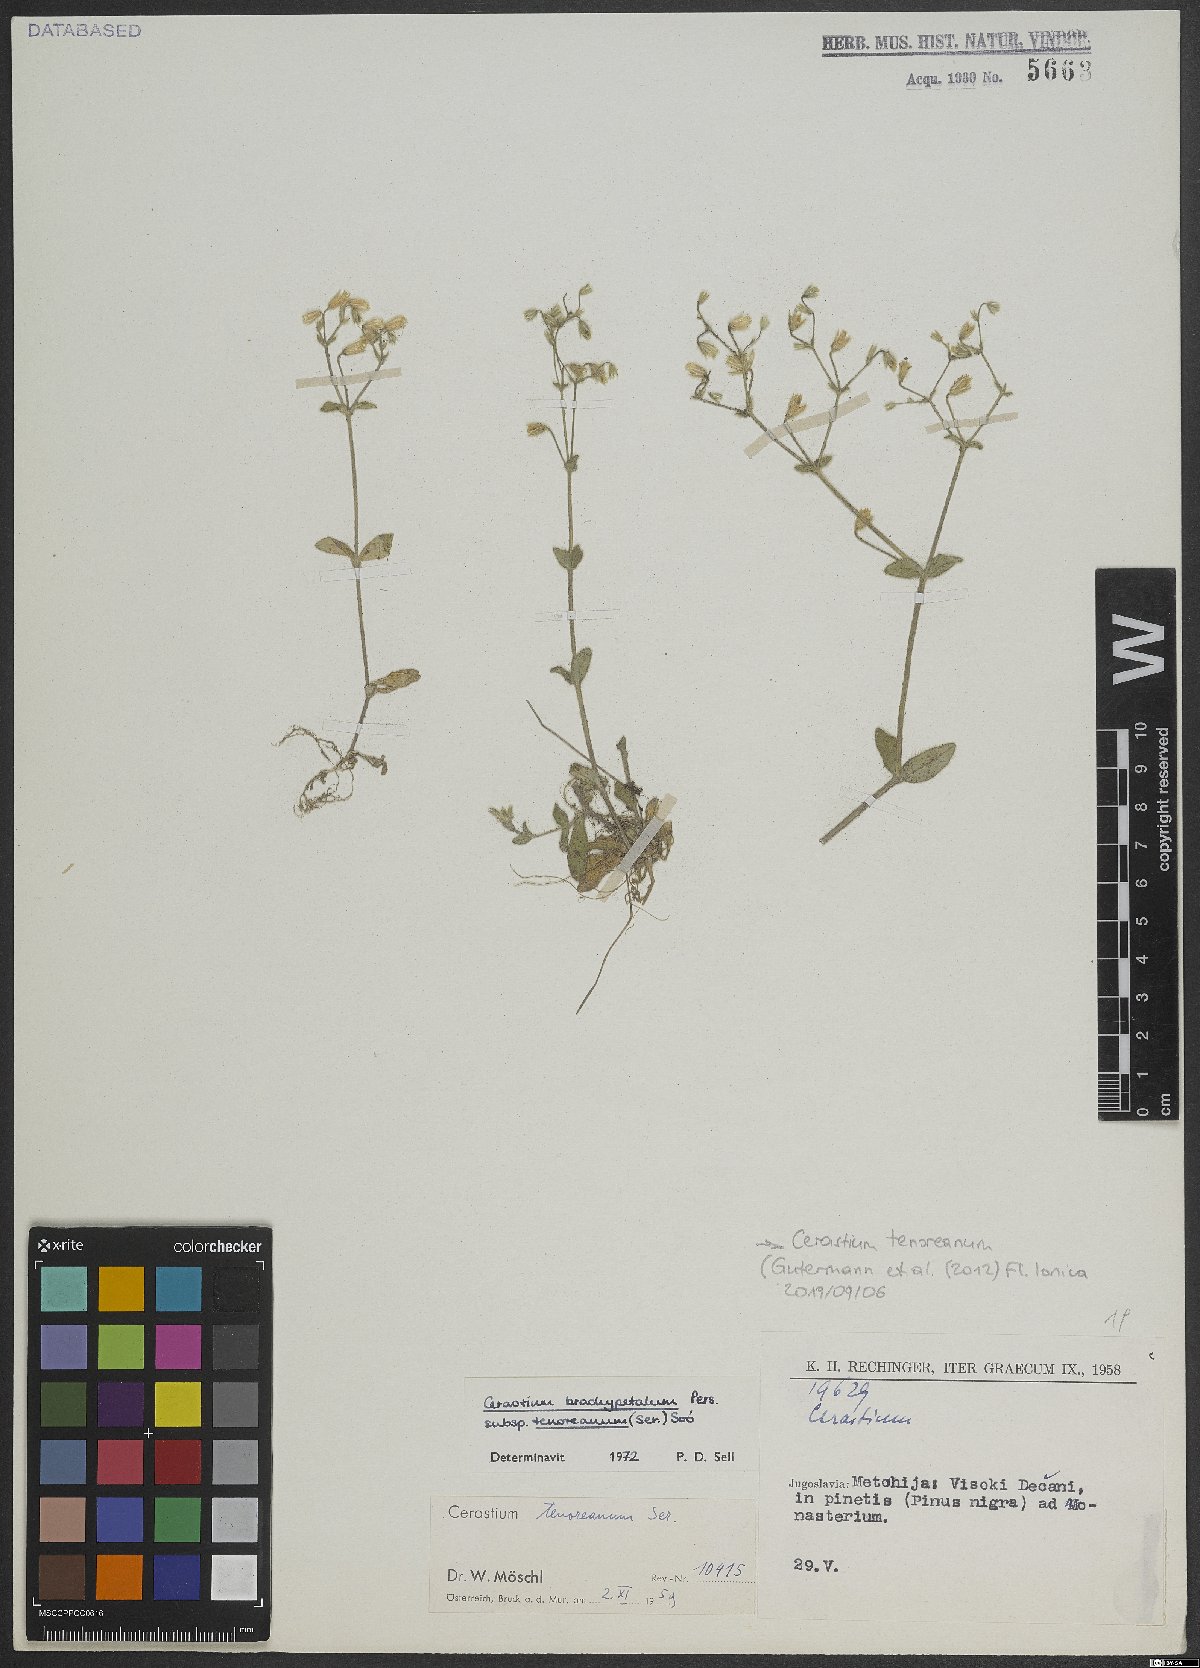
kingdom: Plantae
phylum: Tracheophyta
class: Magnoliopsida
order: Caryophyllales
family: Caryophyllaceae
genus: Cerastium
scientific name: Cerastium tenoreanum
